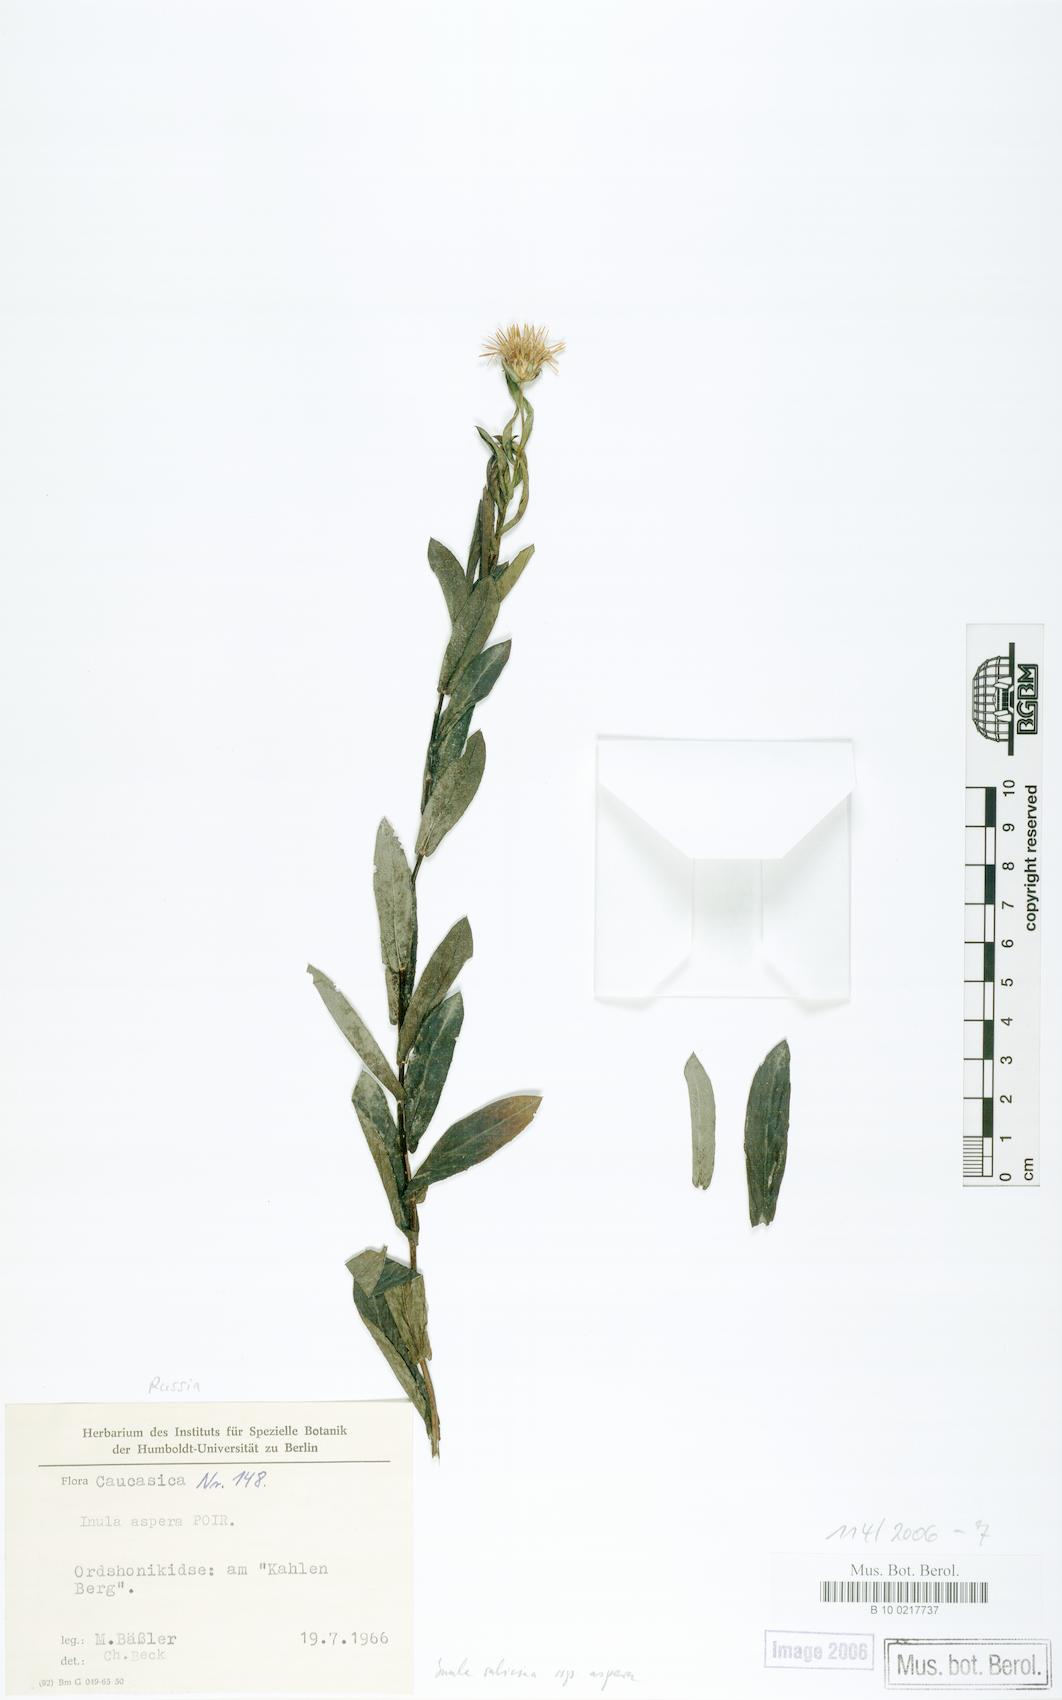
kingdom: Plantae
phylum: Tracheophyta
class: Magnoliopsida
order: Asterales
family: Asteraceae
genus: Pentanema
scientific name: Pentanema salicinum
